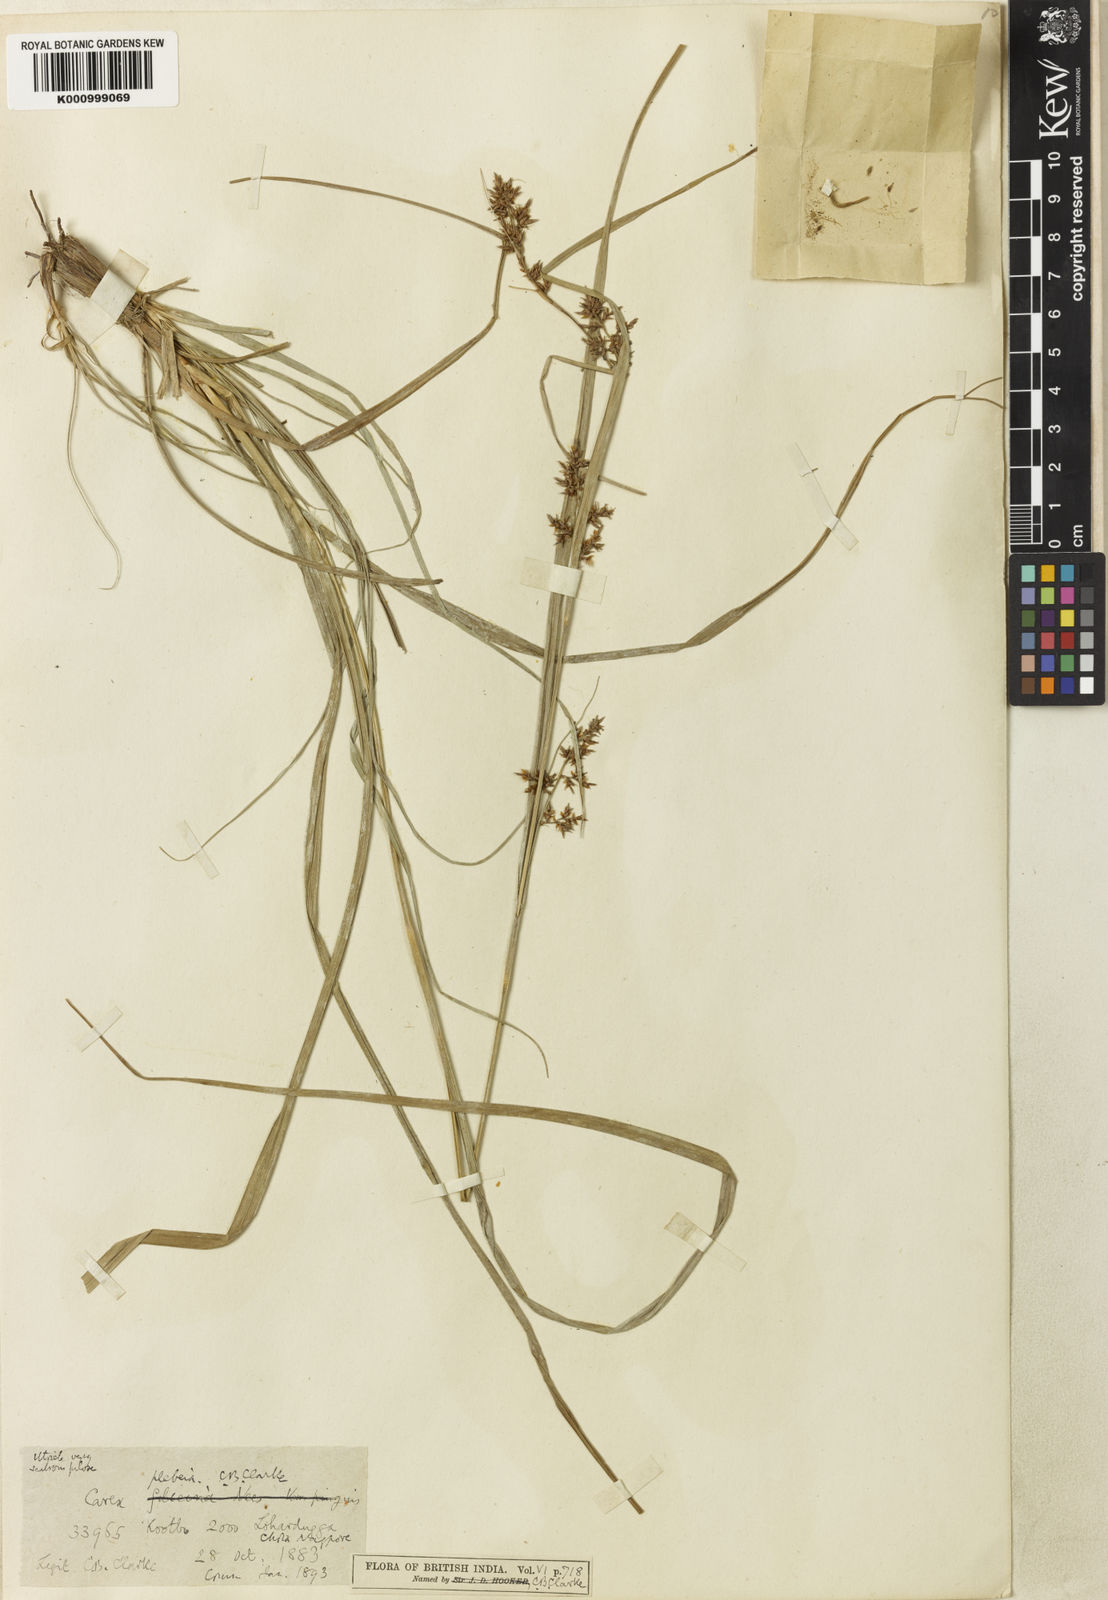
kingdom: Plantae
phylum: Tracheophyta
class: Liliopsida
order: Poales
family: Cyperaceae
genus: Carex
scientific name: Carex continua
